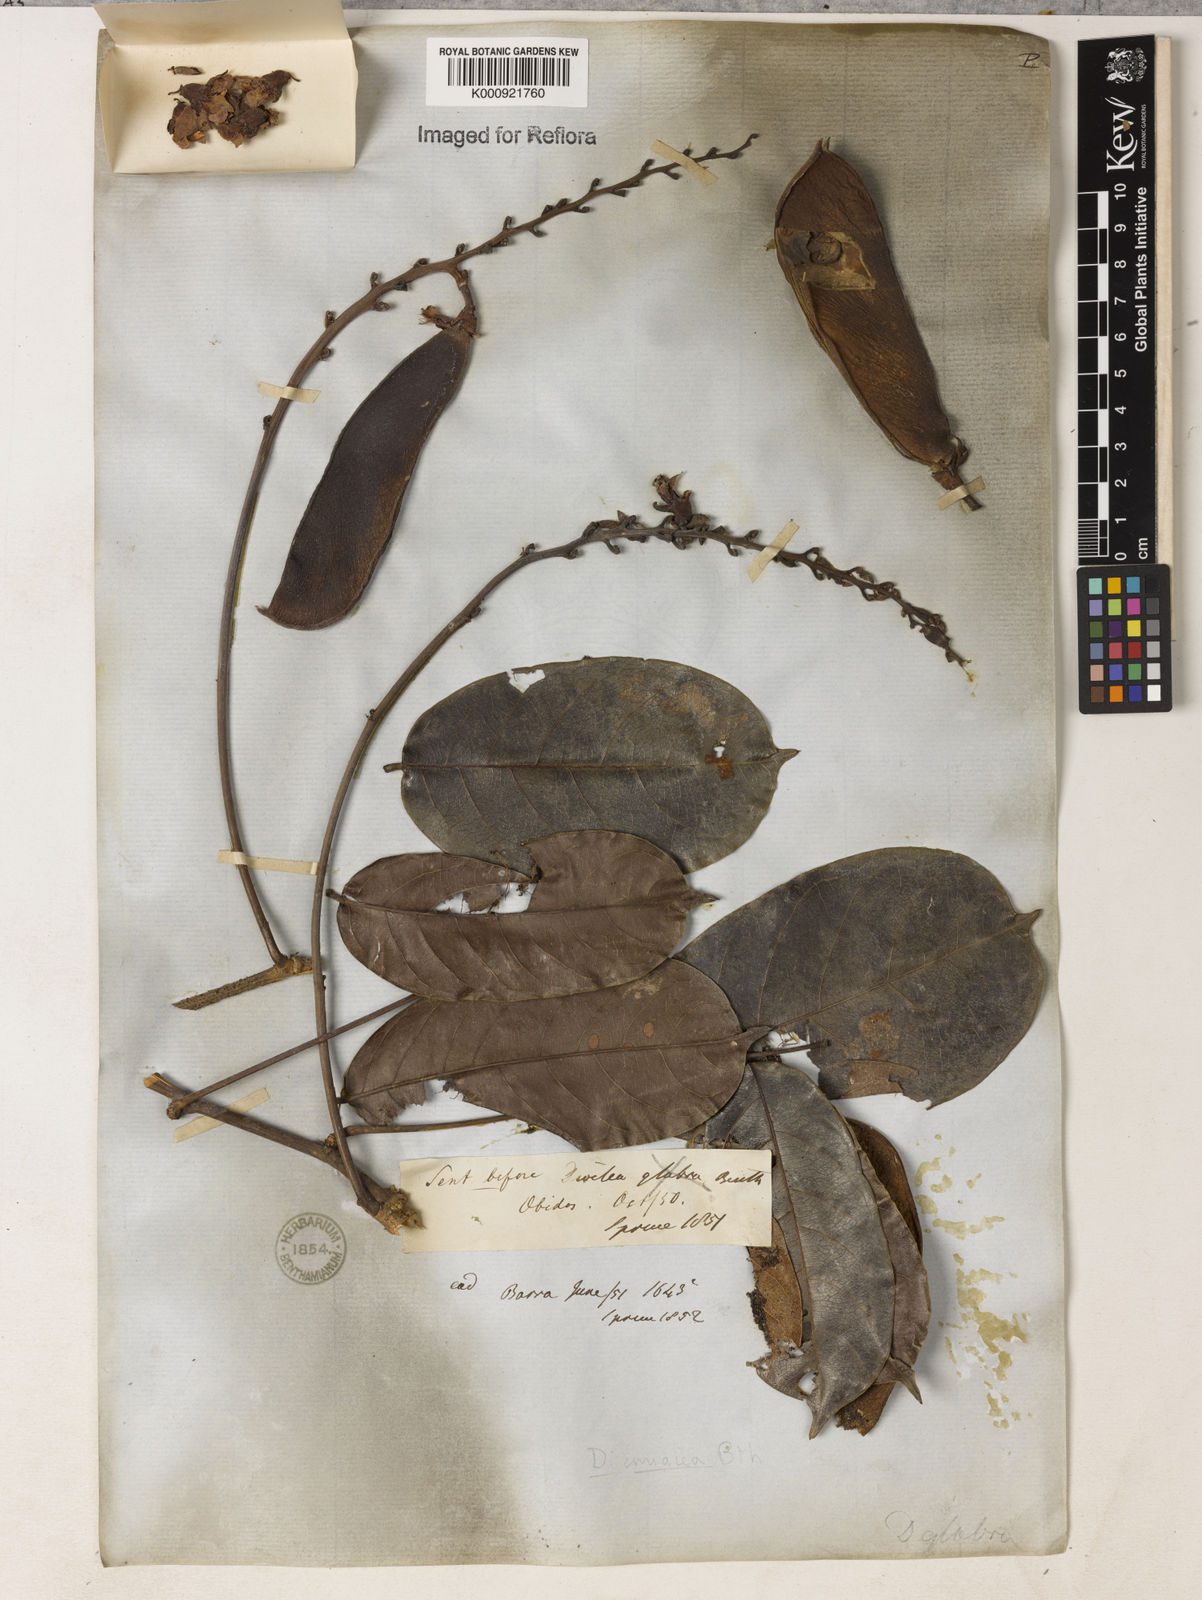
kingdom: Plantae
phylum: Tracheophyta
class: Magnoliopsida
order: Fabales
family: Fabaceae
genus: Macropsychanthus
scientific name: Macropsychanthus glaber
